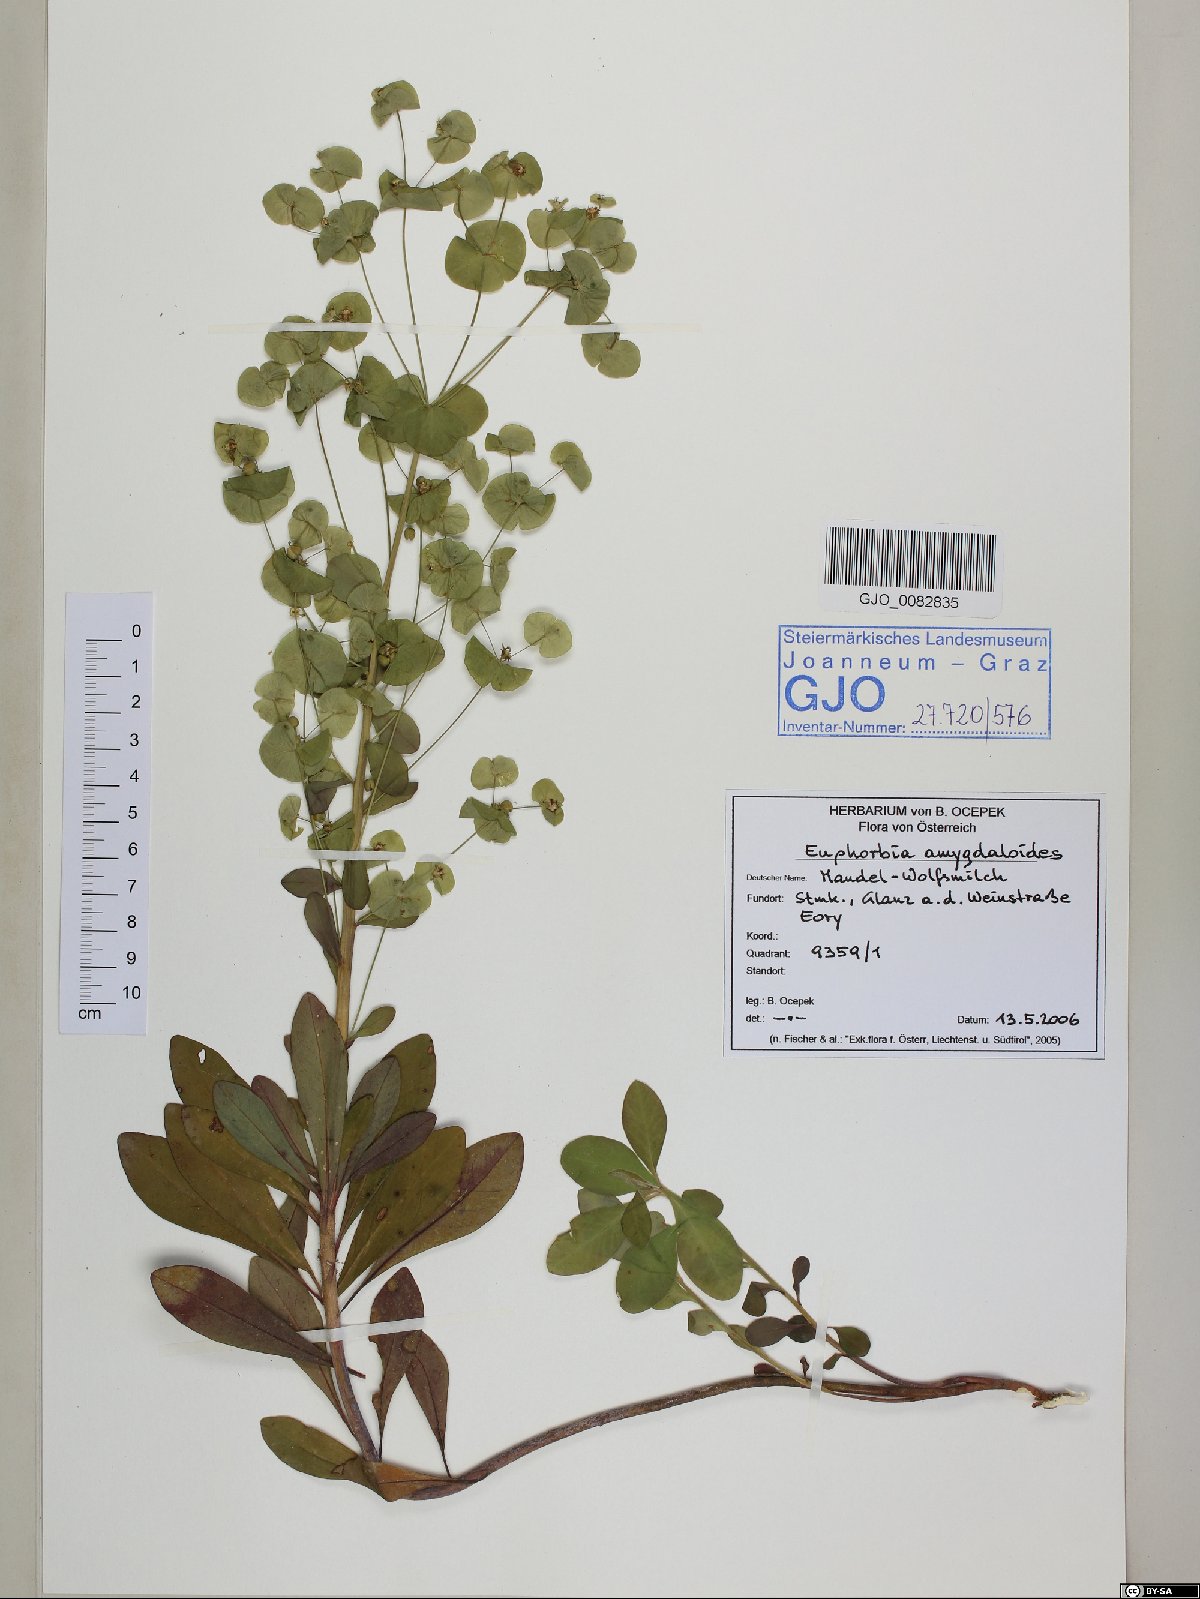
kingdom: Plantae
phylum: Tracheophyta
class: Magnoliopsida
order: Malpighiales
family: Euphorbiaceae
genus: Euphorbia
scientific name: Euphorbia amygdaloides
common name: Wood spurge
